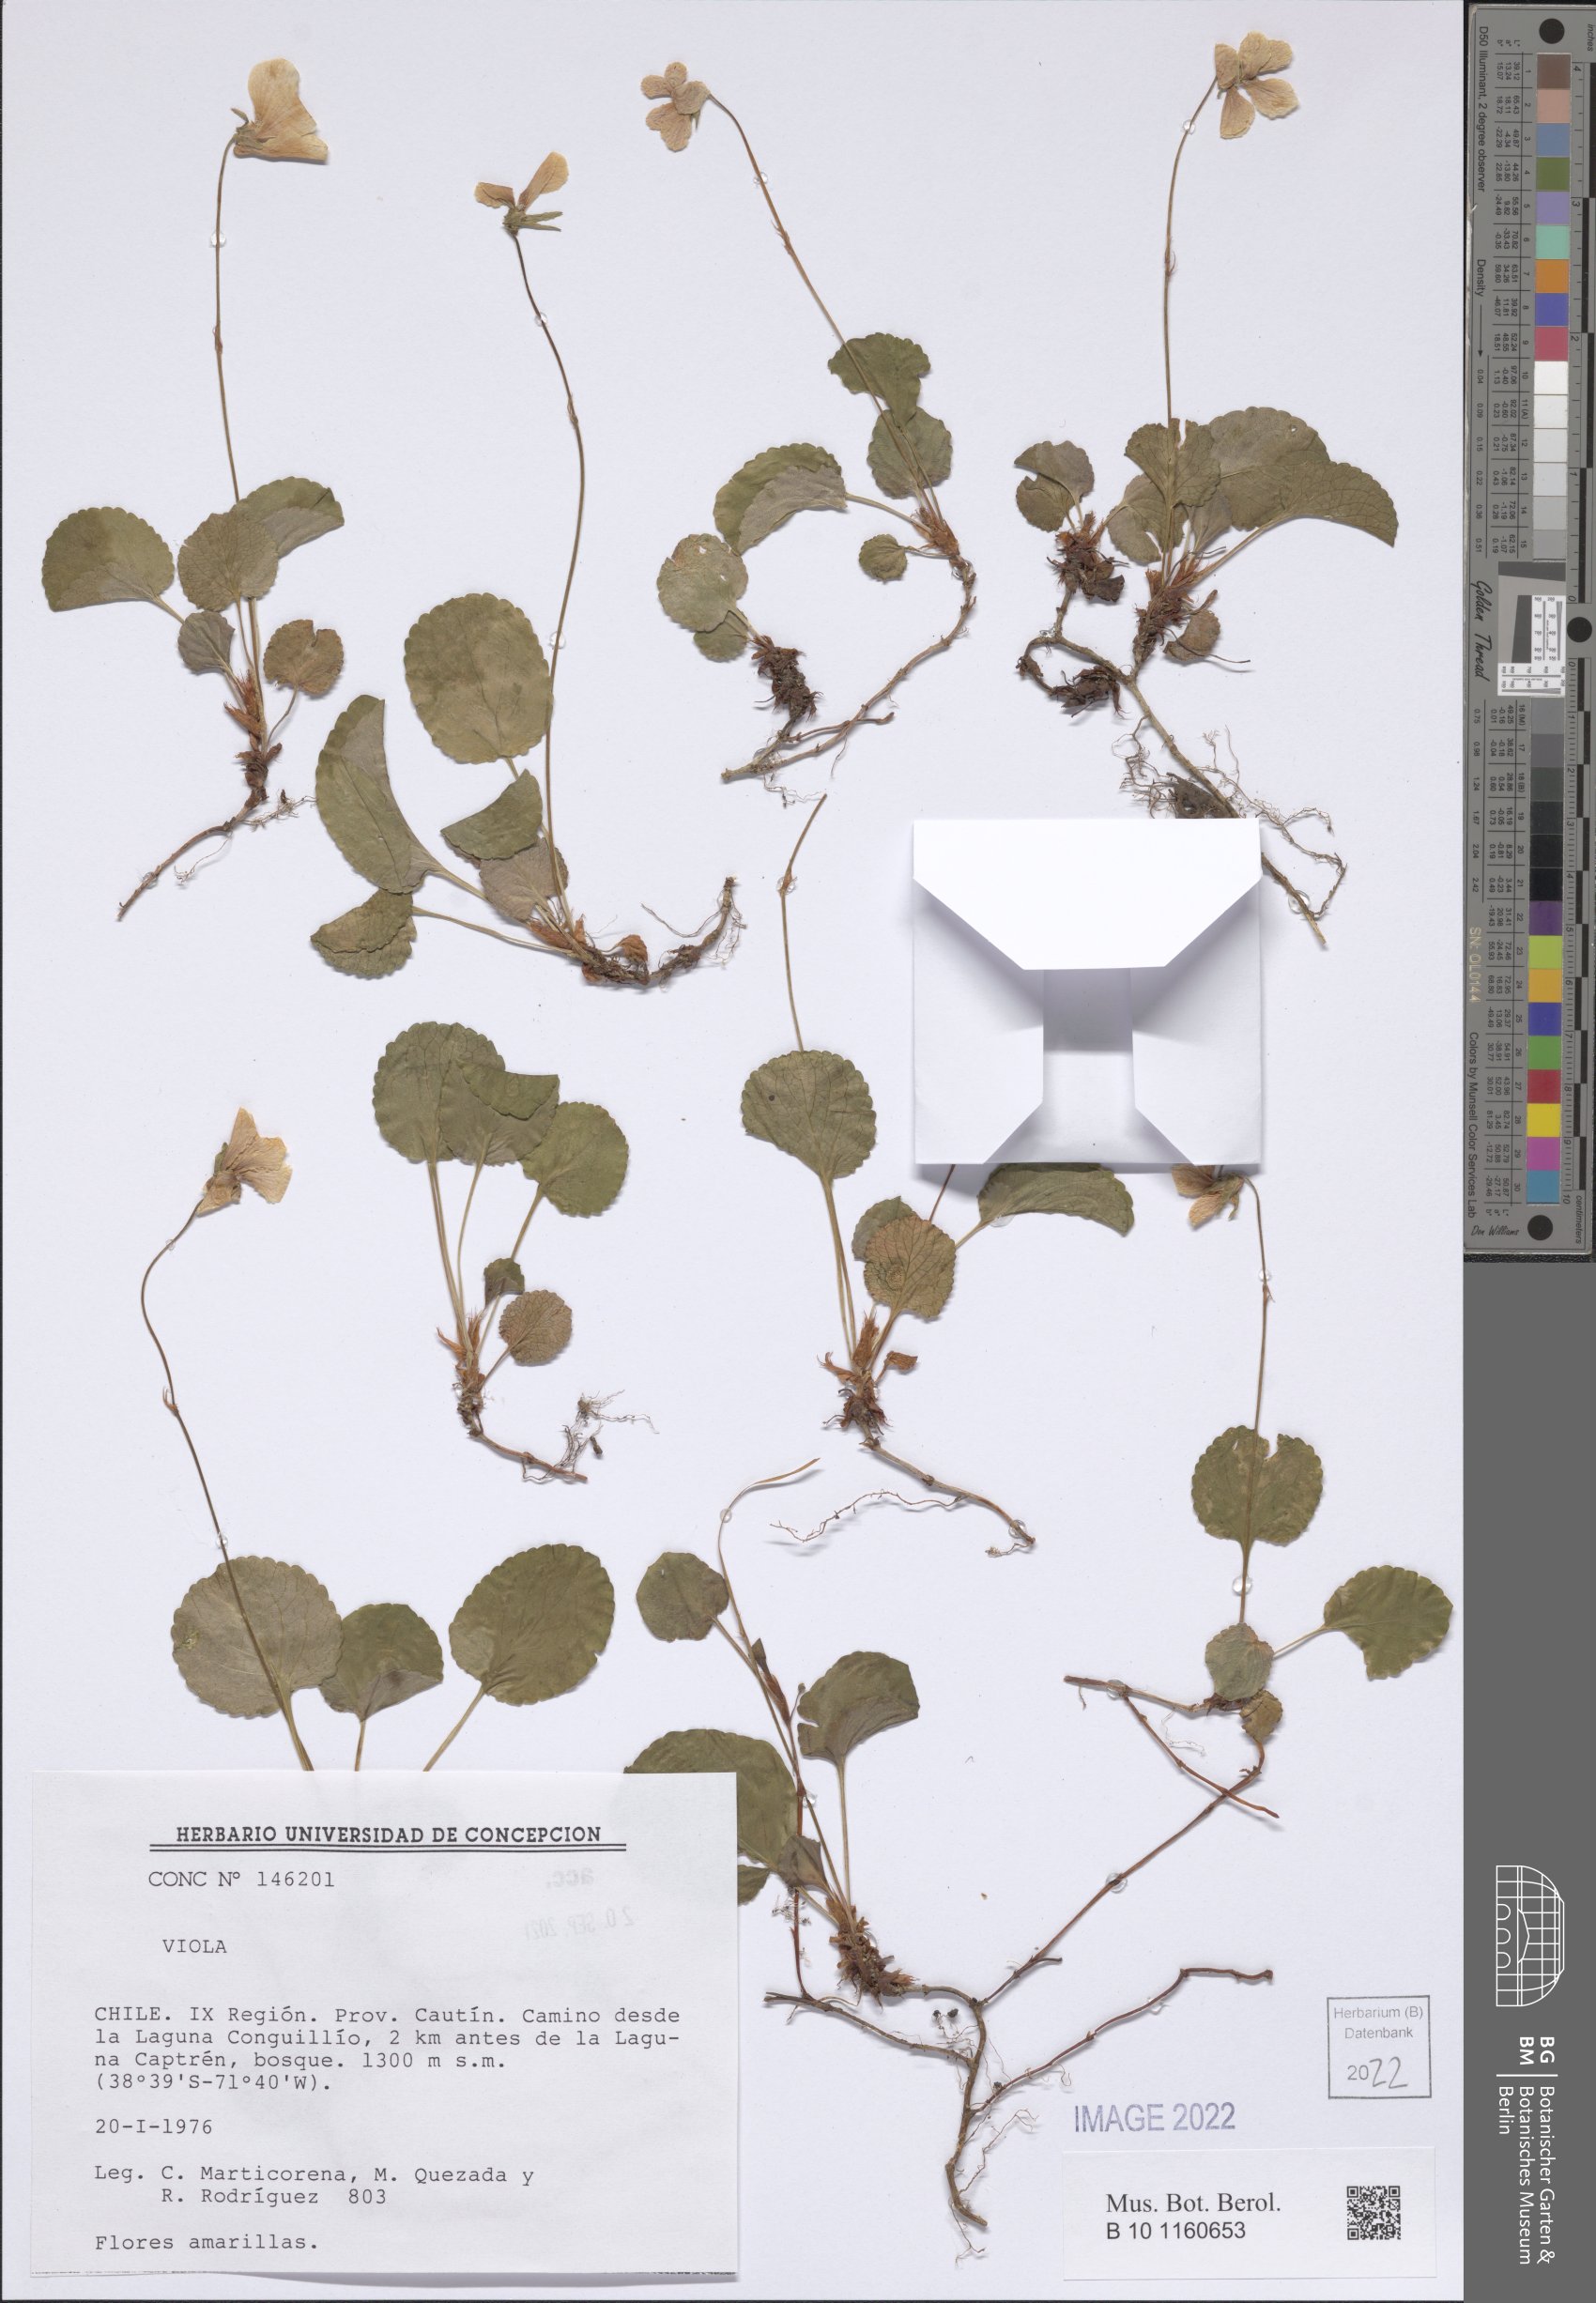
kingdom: Plantae
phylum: Tracheophyta
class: Magnoliopsida
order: Malpighiales
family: Violaceae
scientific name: Violaceae
